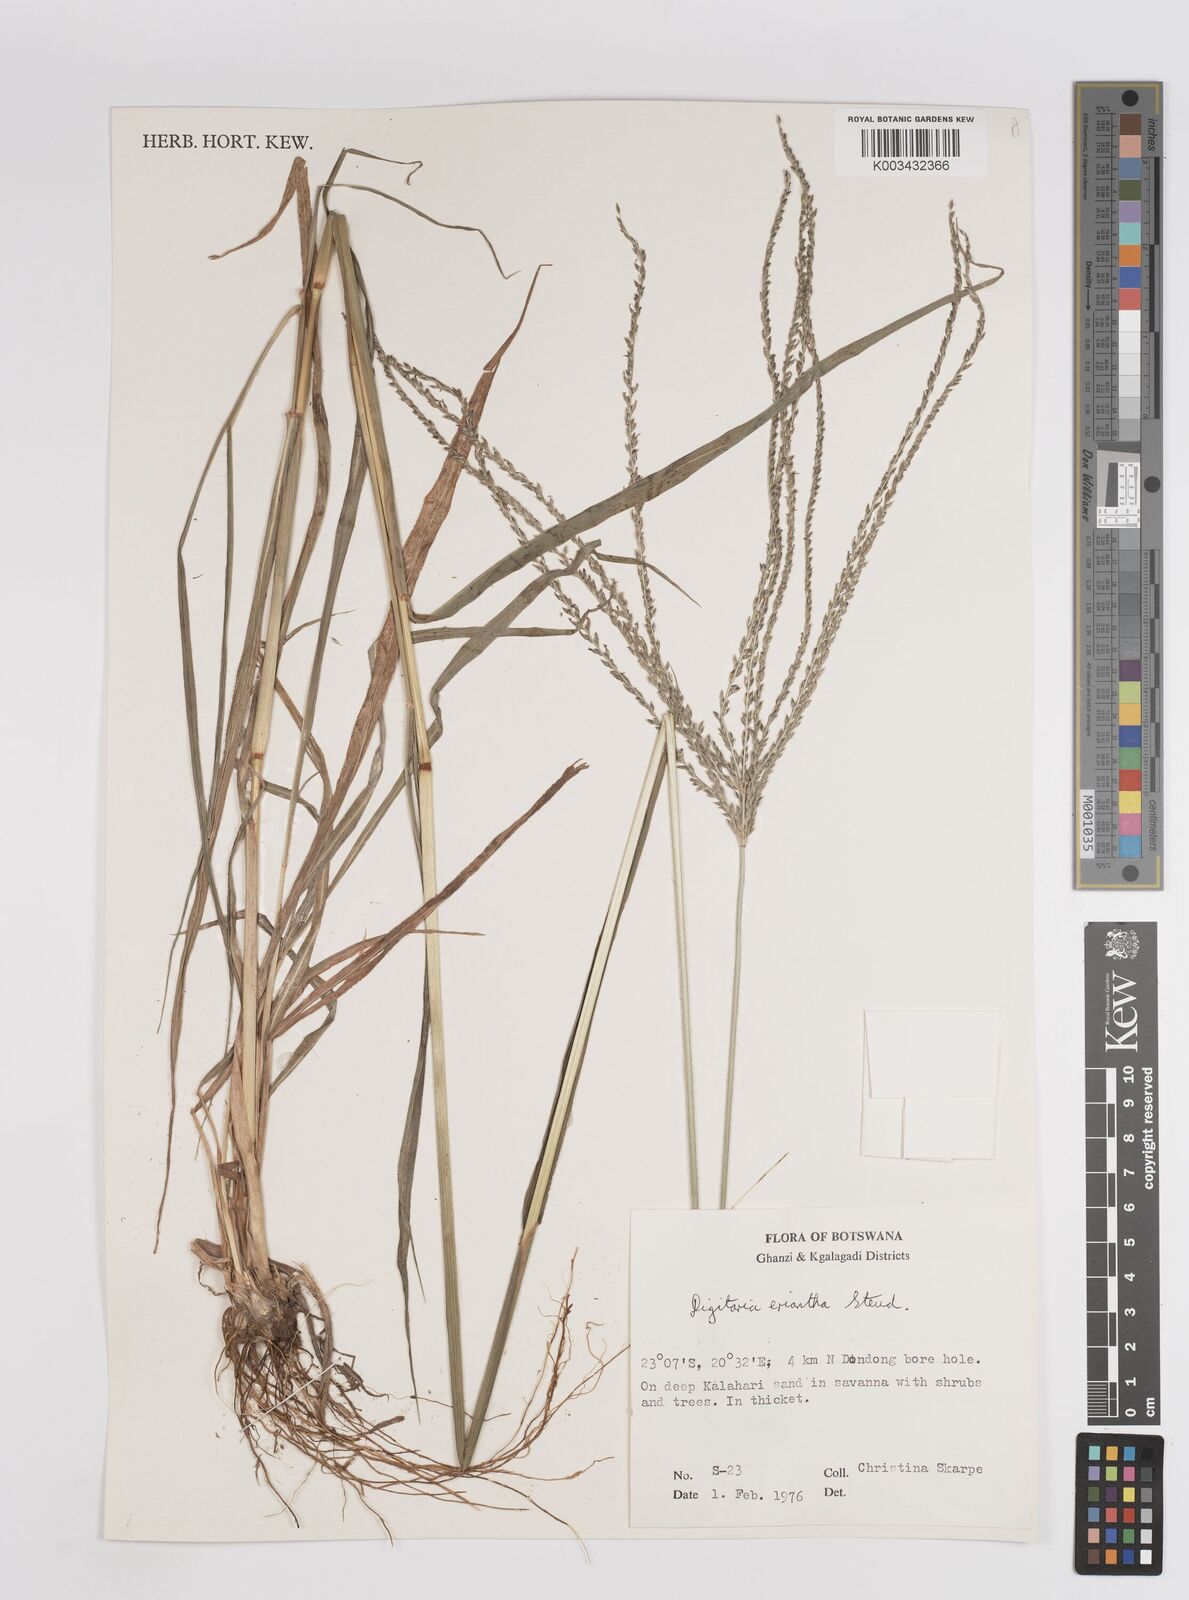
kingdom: Plantae
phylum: Tracheophyta
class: Liliopsida
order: Poales
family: Poaceae
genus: Digitaria
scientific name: Digitaria eriantha
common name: Digitgrass
